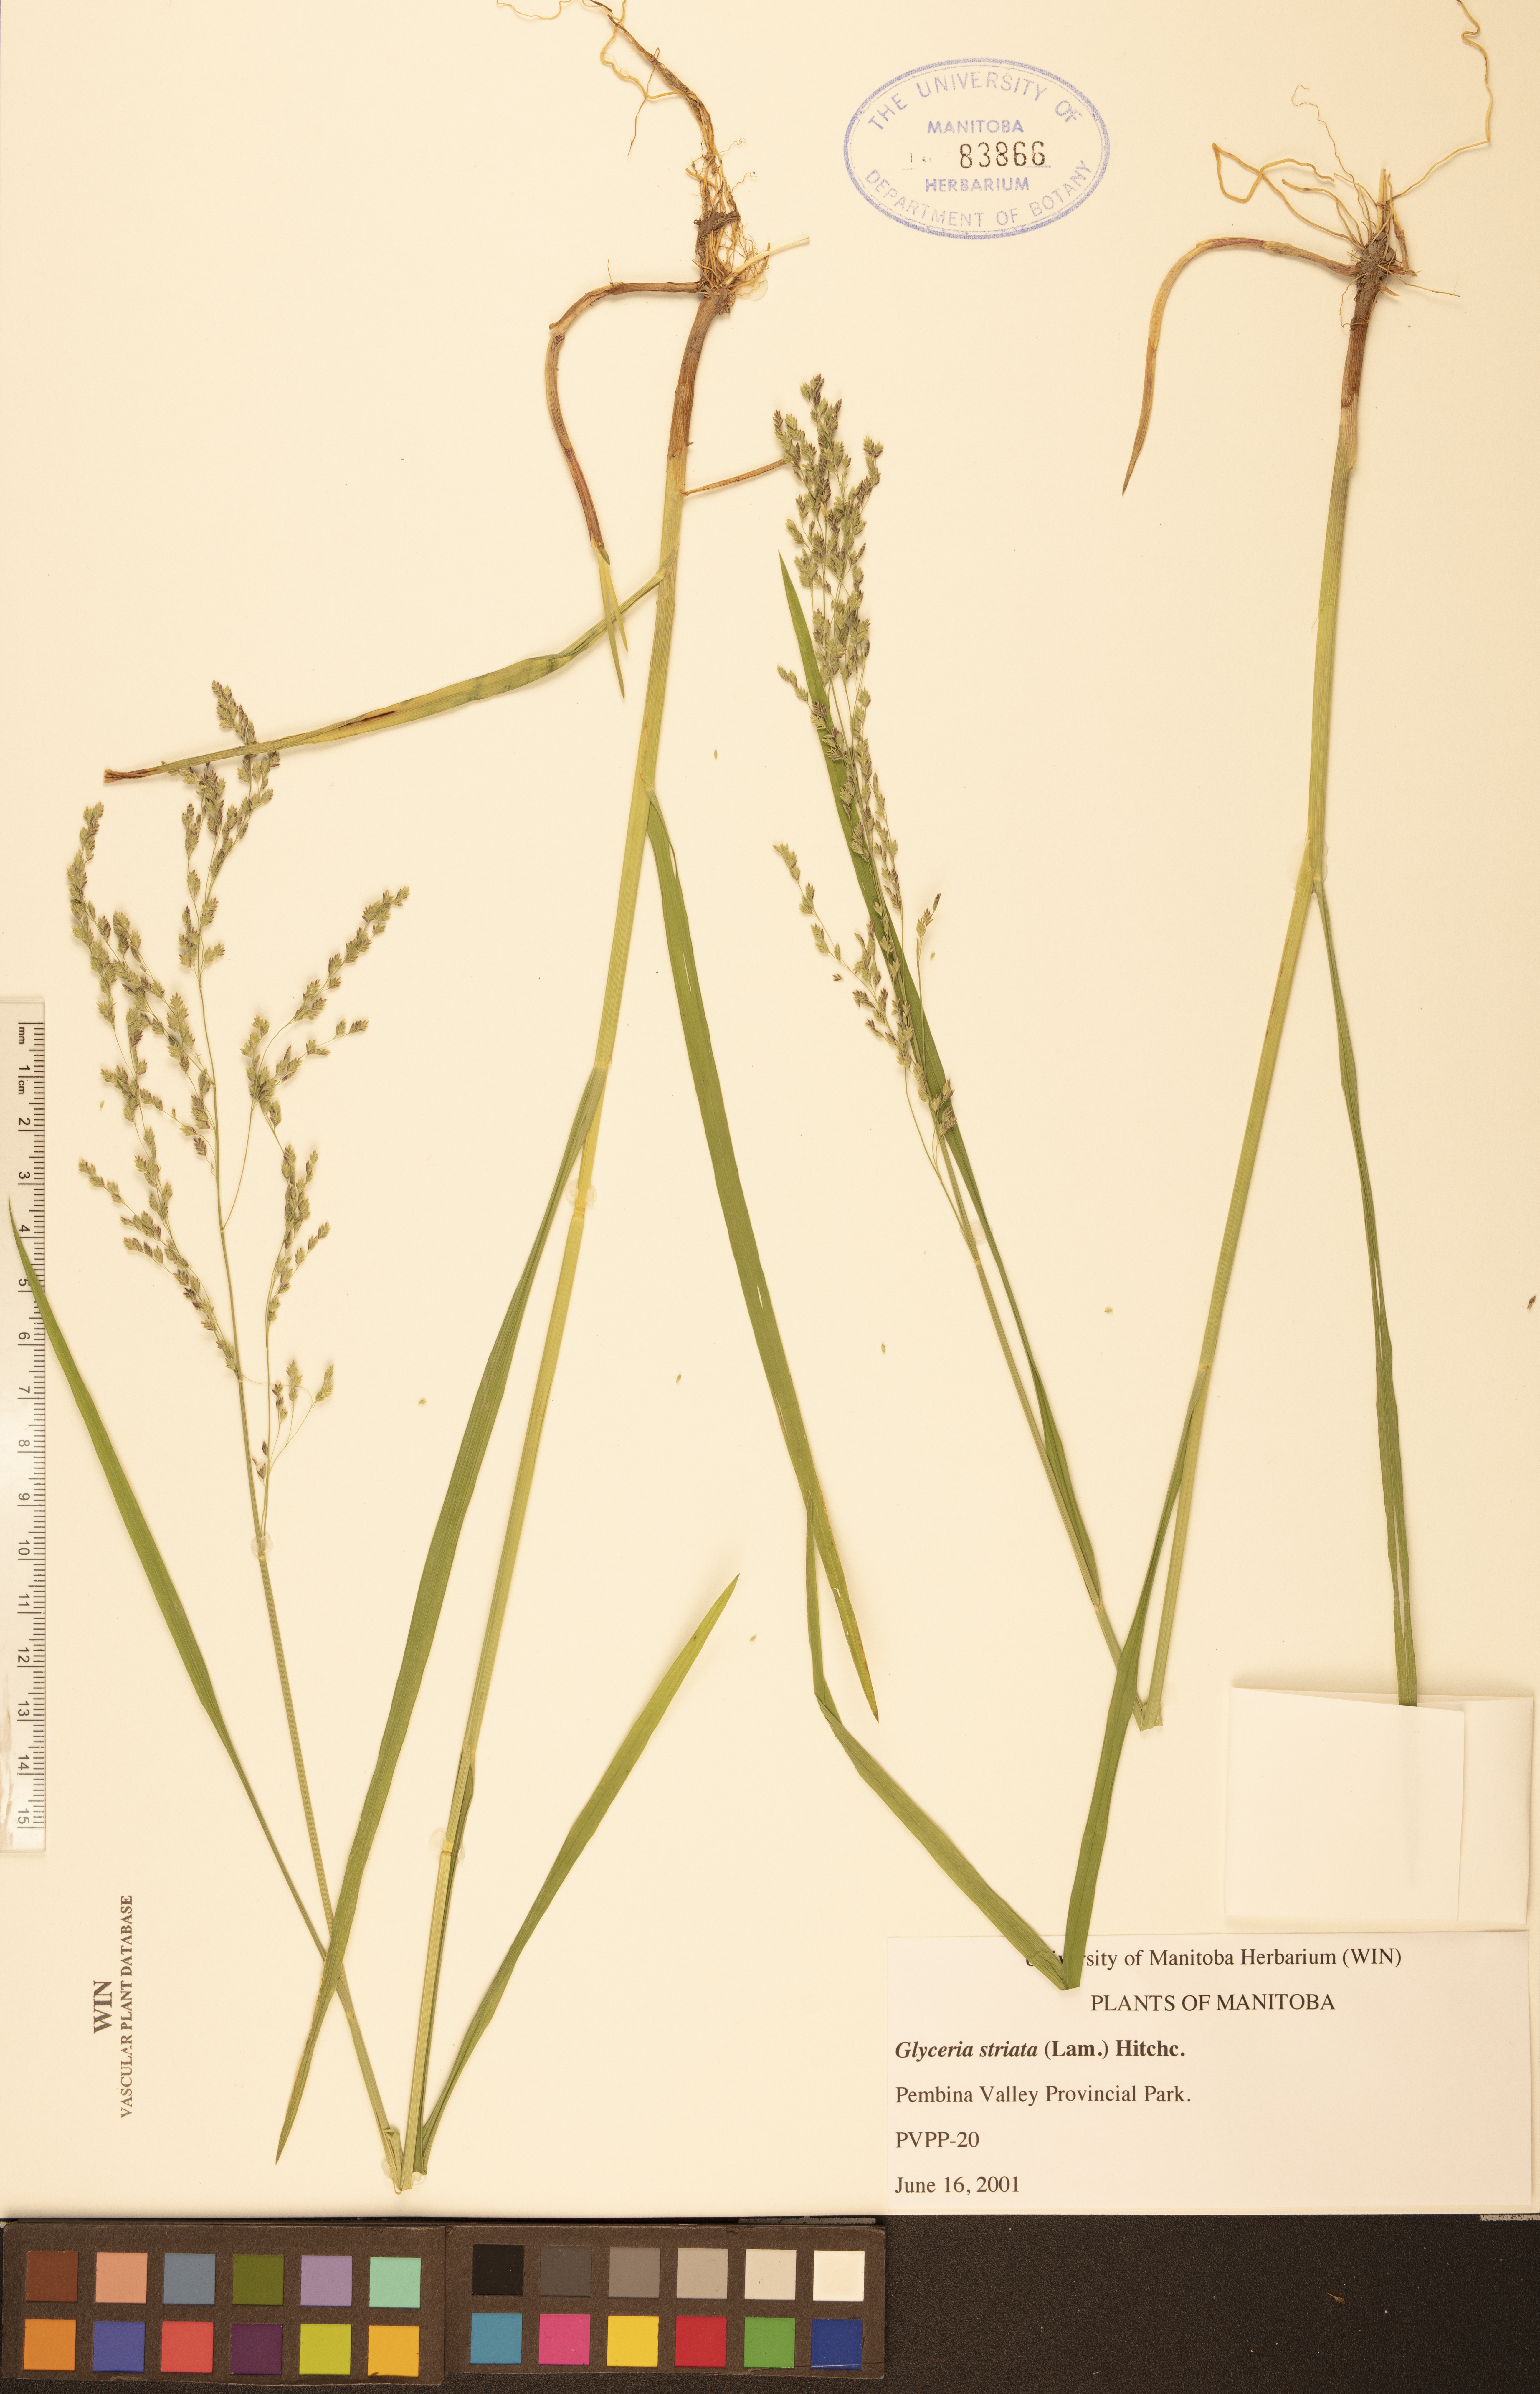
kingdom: Plantae
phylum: Tracheophyta
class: Liliopsida
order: Poales
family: Poaceae
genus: Glyceria
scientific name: Glyceria striata
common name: Fowl manna grass
